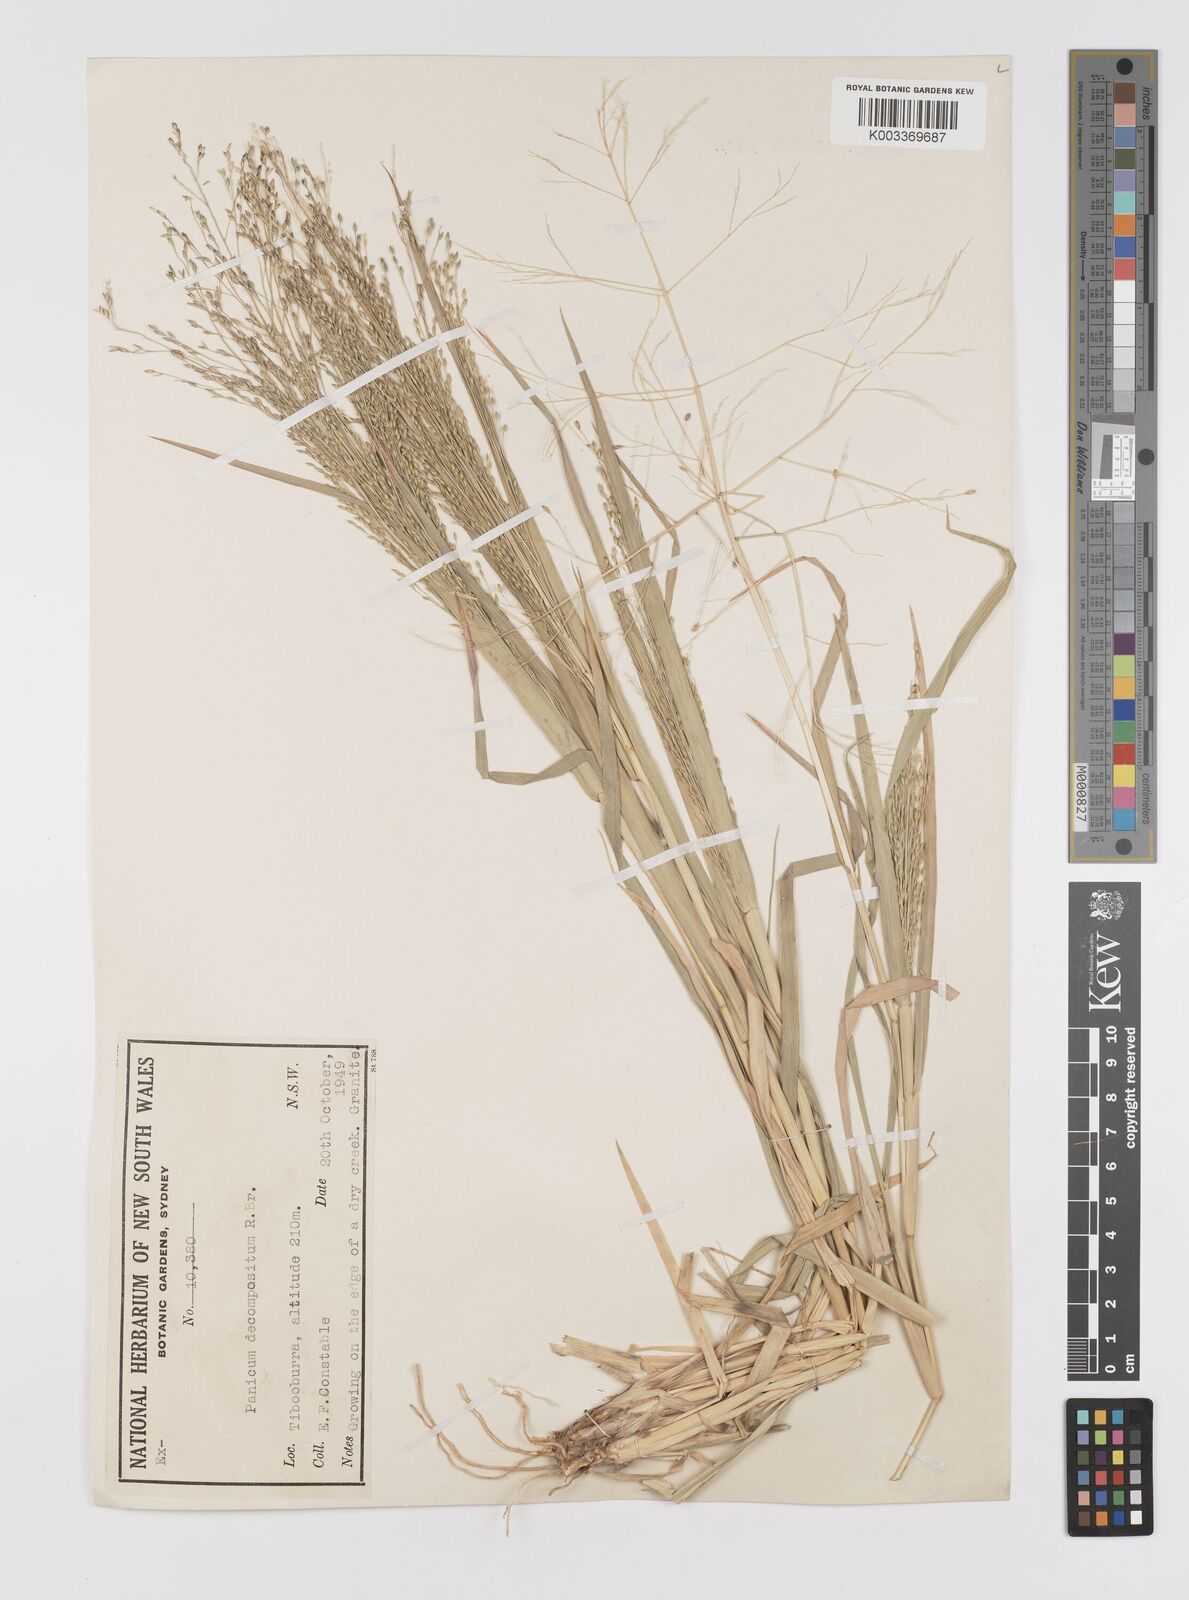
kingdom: Plantae
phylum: Tracheophyta
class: Liliopsida
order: Poales
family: Poaceae
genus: Panicum
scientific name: Panicum decompositum
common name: Australian millet
